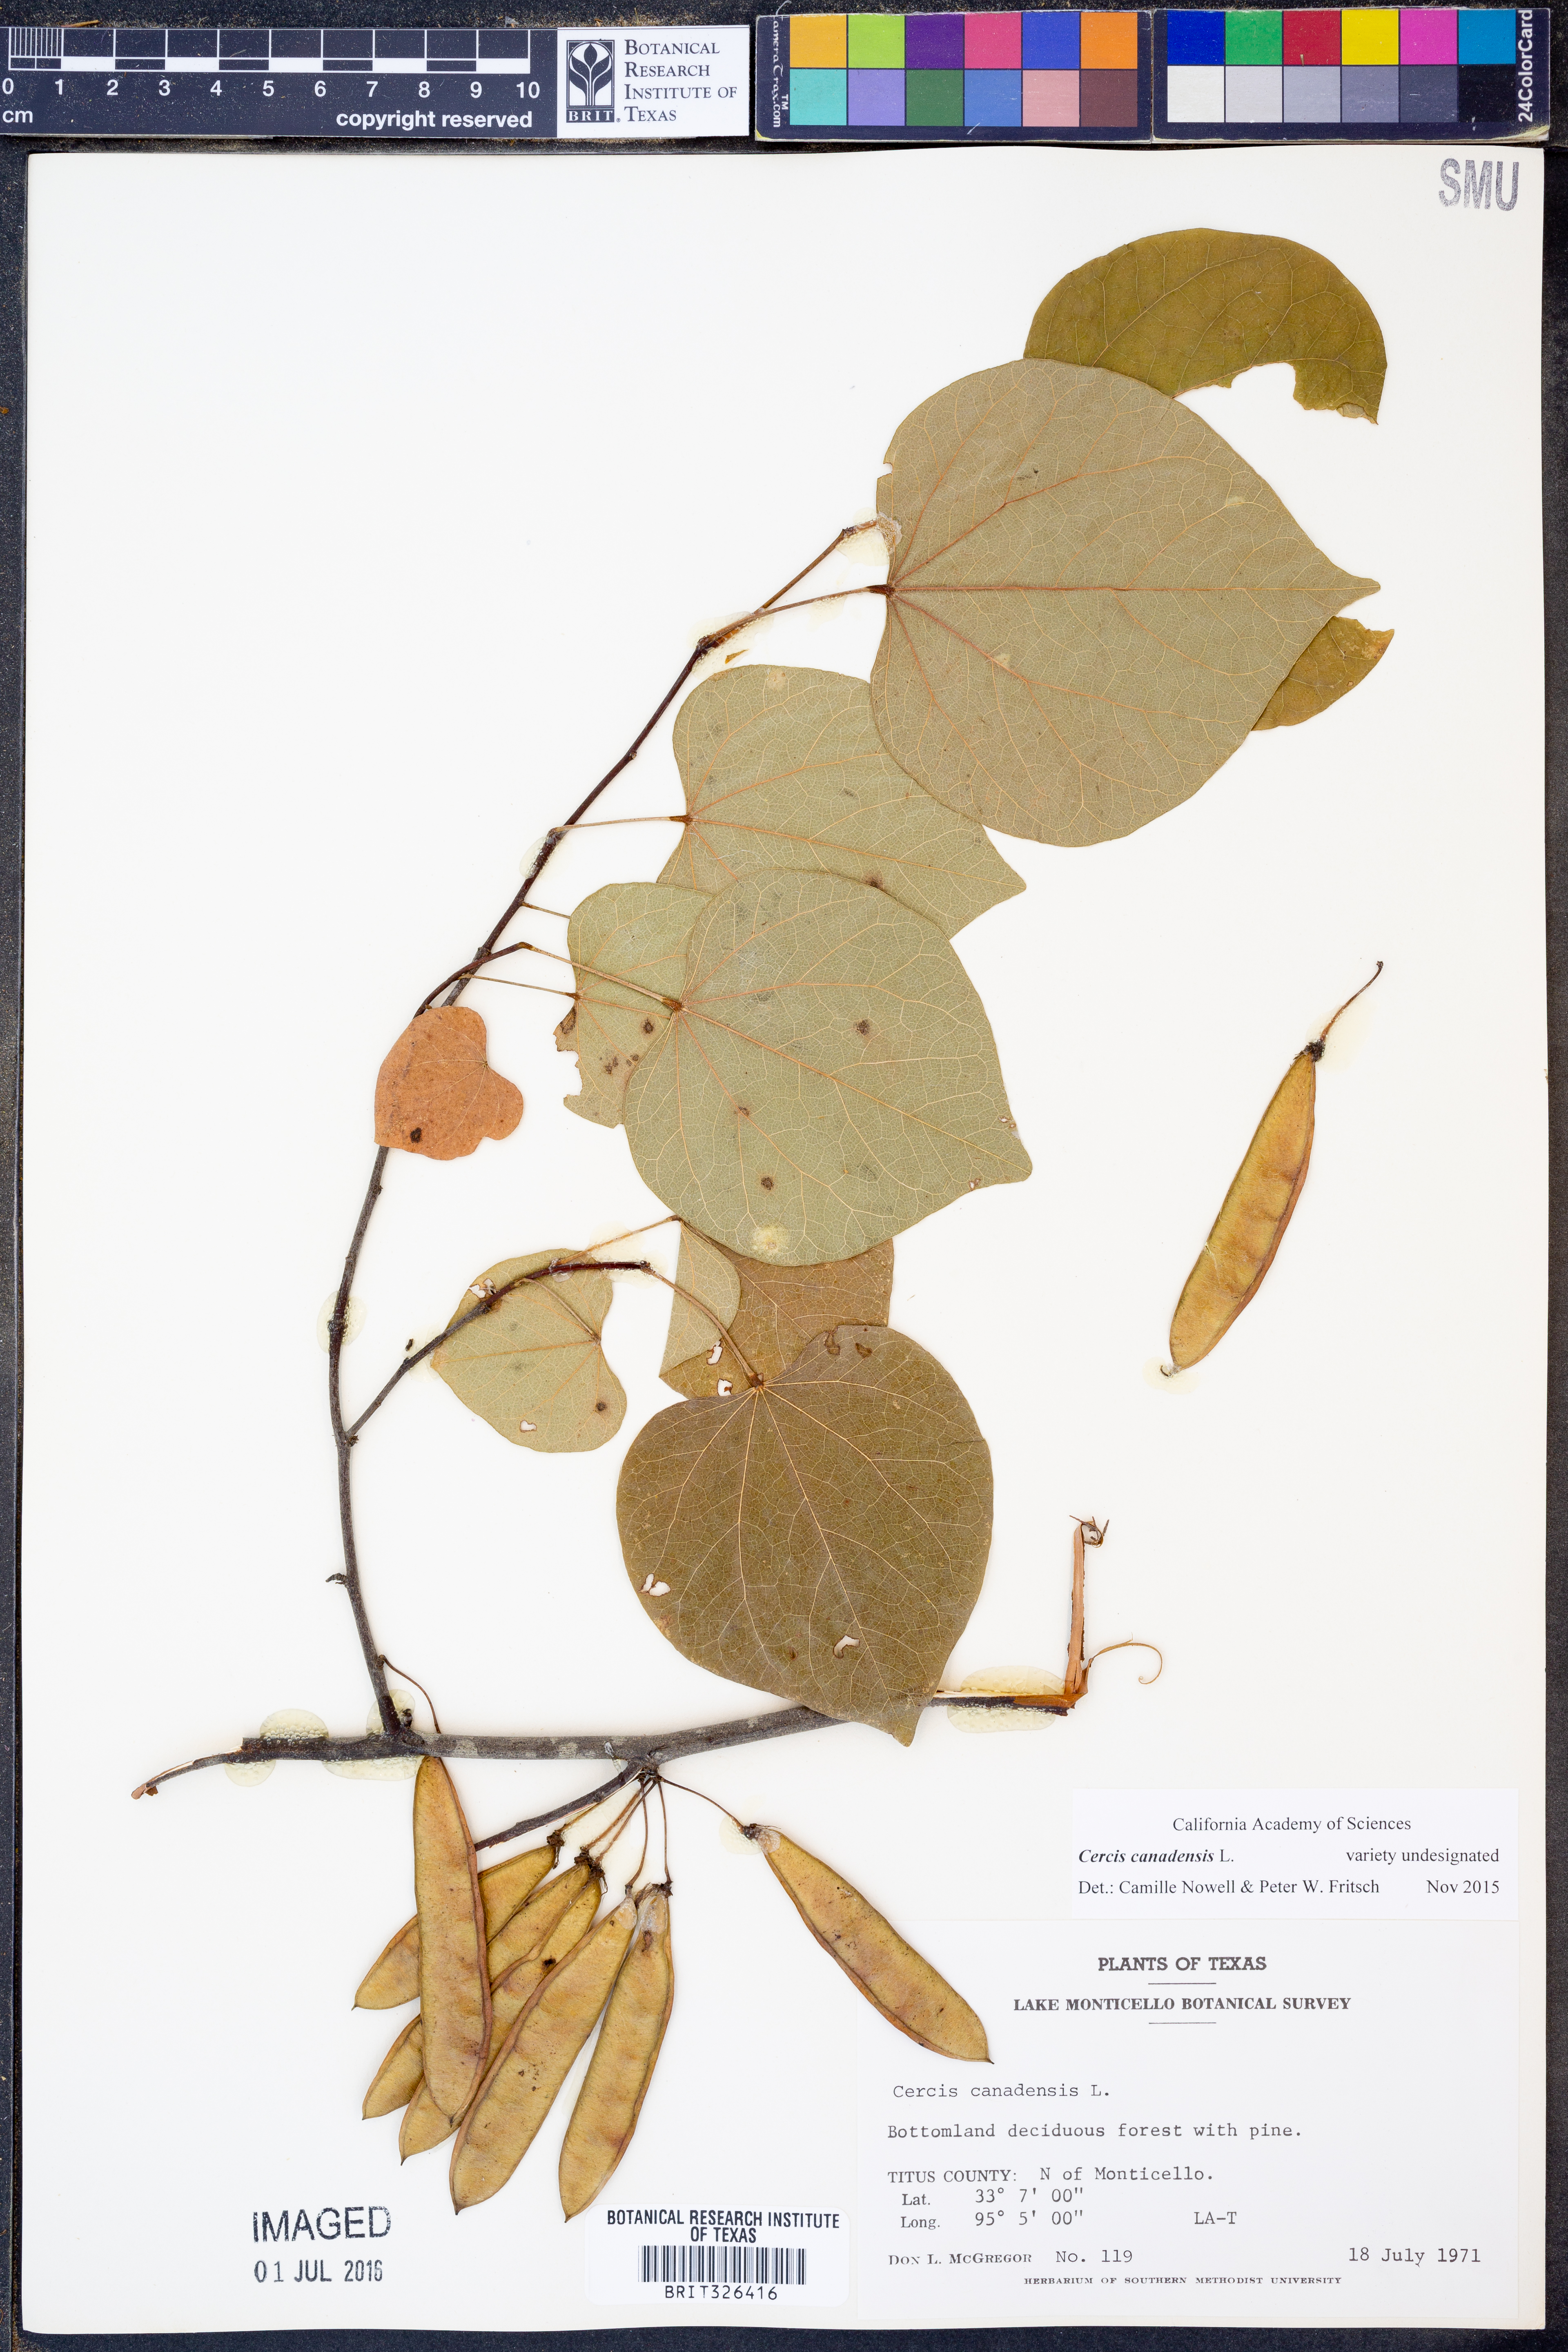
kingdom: Plantae
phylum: Tracheophyta
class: Magnoliopsida
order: Fabales
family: Fabaceae
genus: Cercis
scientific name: Cercis canadensis
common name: Eastern redbud
